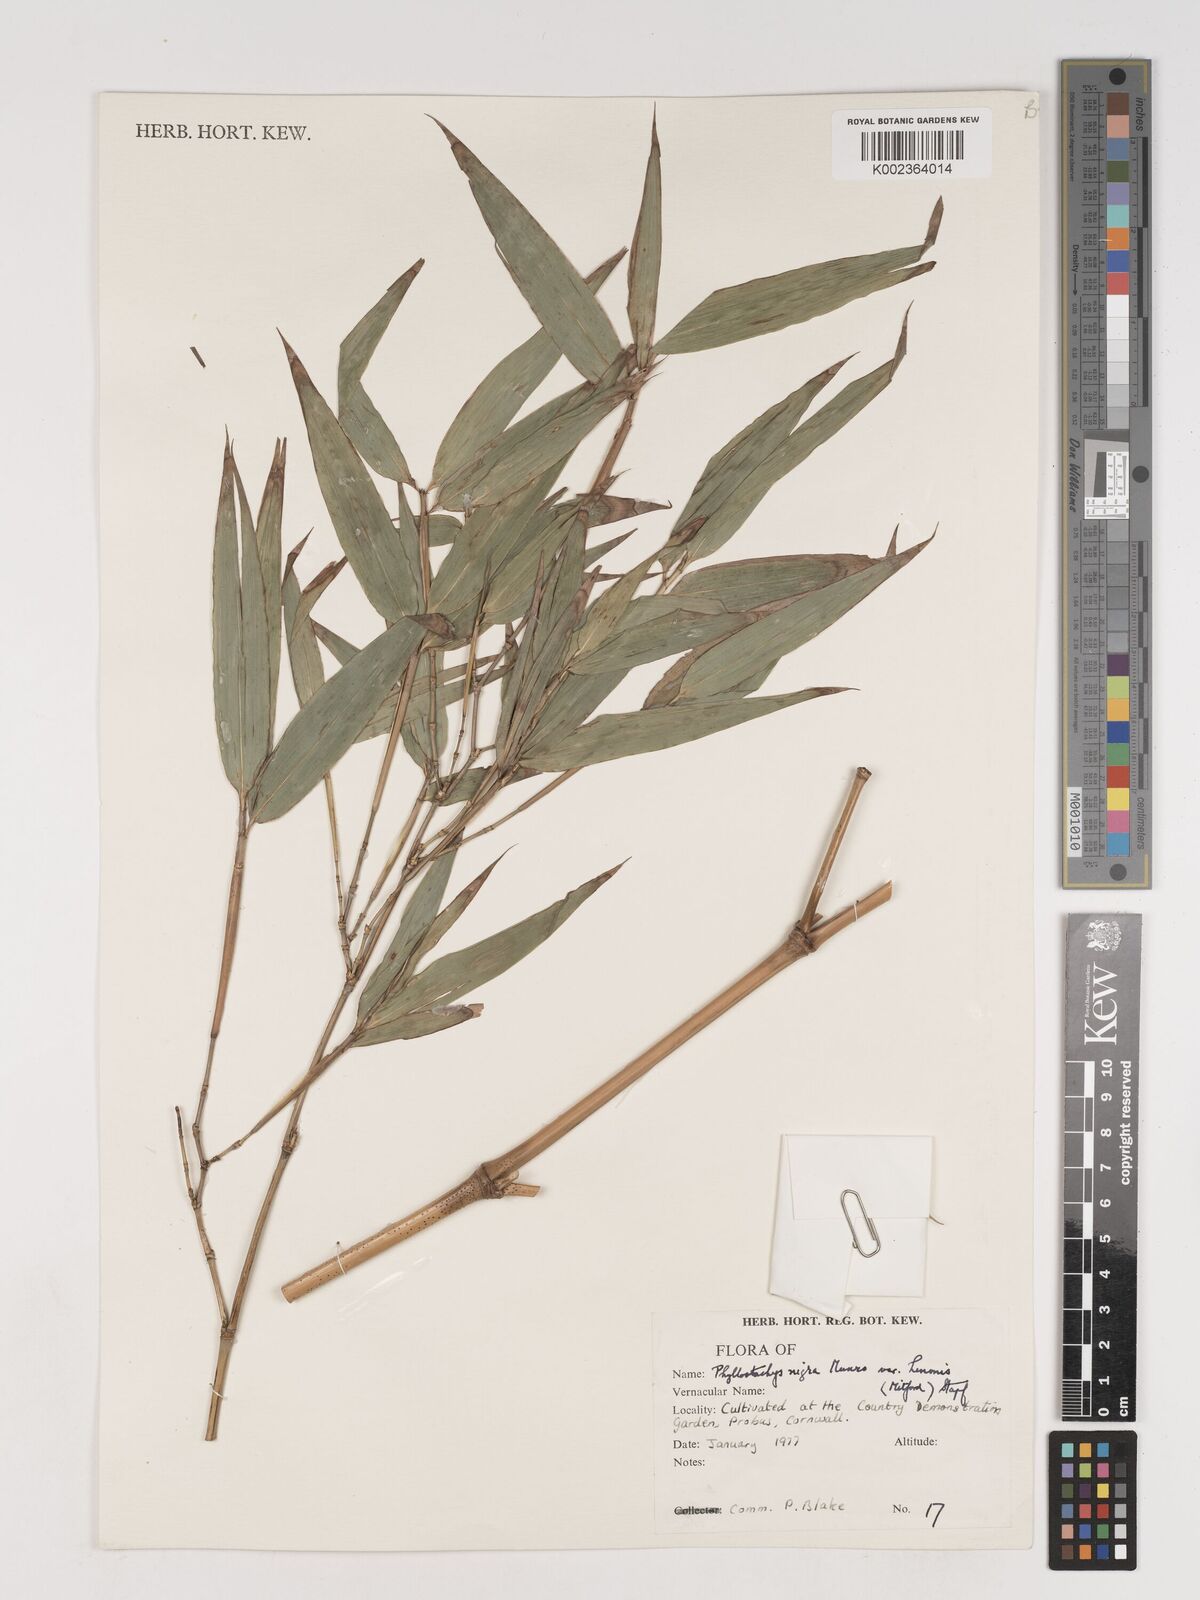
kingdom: Plantae
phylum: Tracheophyta
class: Liliopsida
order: Poales
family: Poaceae
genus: Phyllostachys
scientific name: Phyllostachys nigra
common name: Black bamboo
